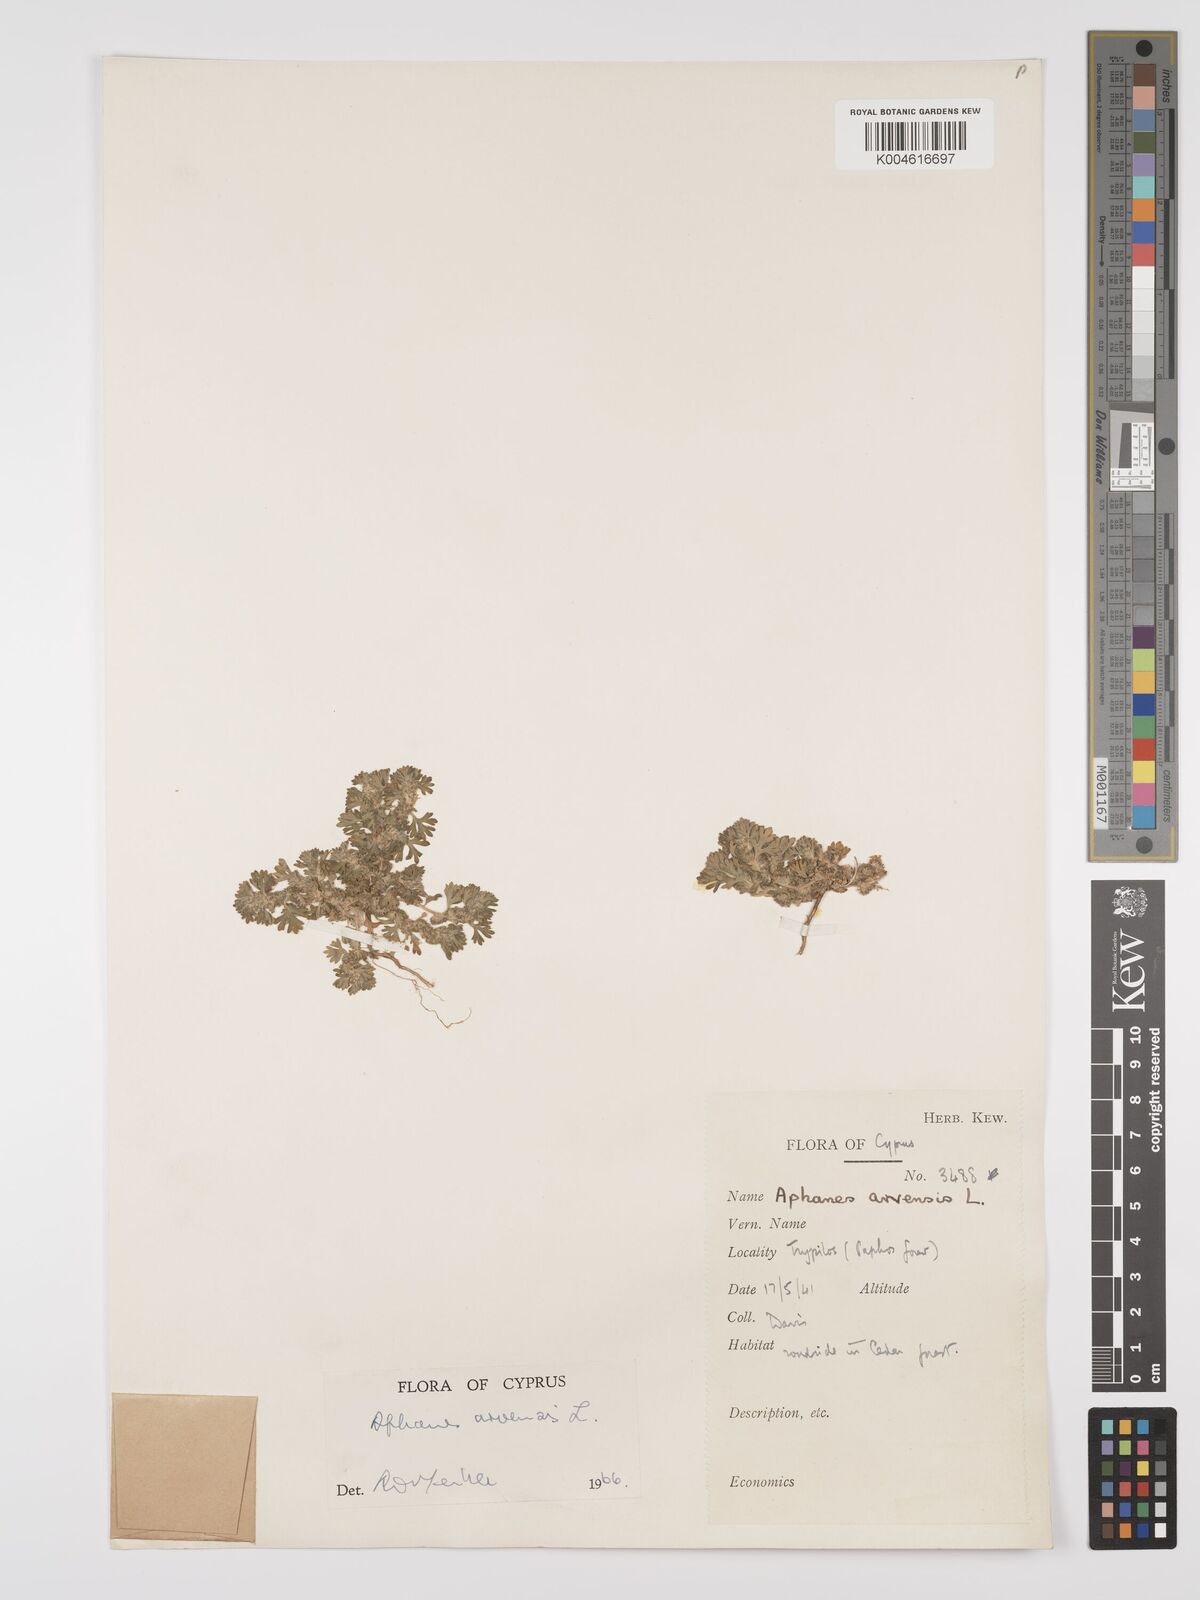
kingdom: Plantae
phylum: Tracheophyta
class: Magnoliopsida
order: Rosales
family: Rosaceae
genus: Aphanes
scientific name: Aphanes arvensis
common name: Parsley-piert
